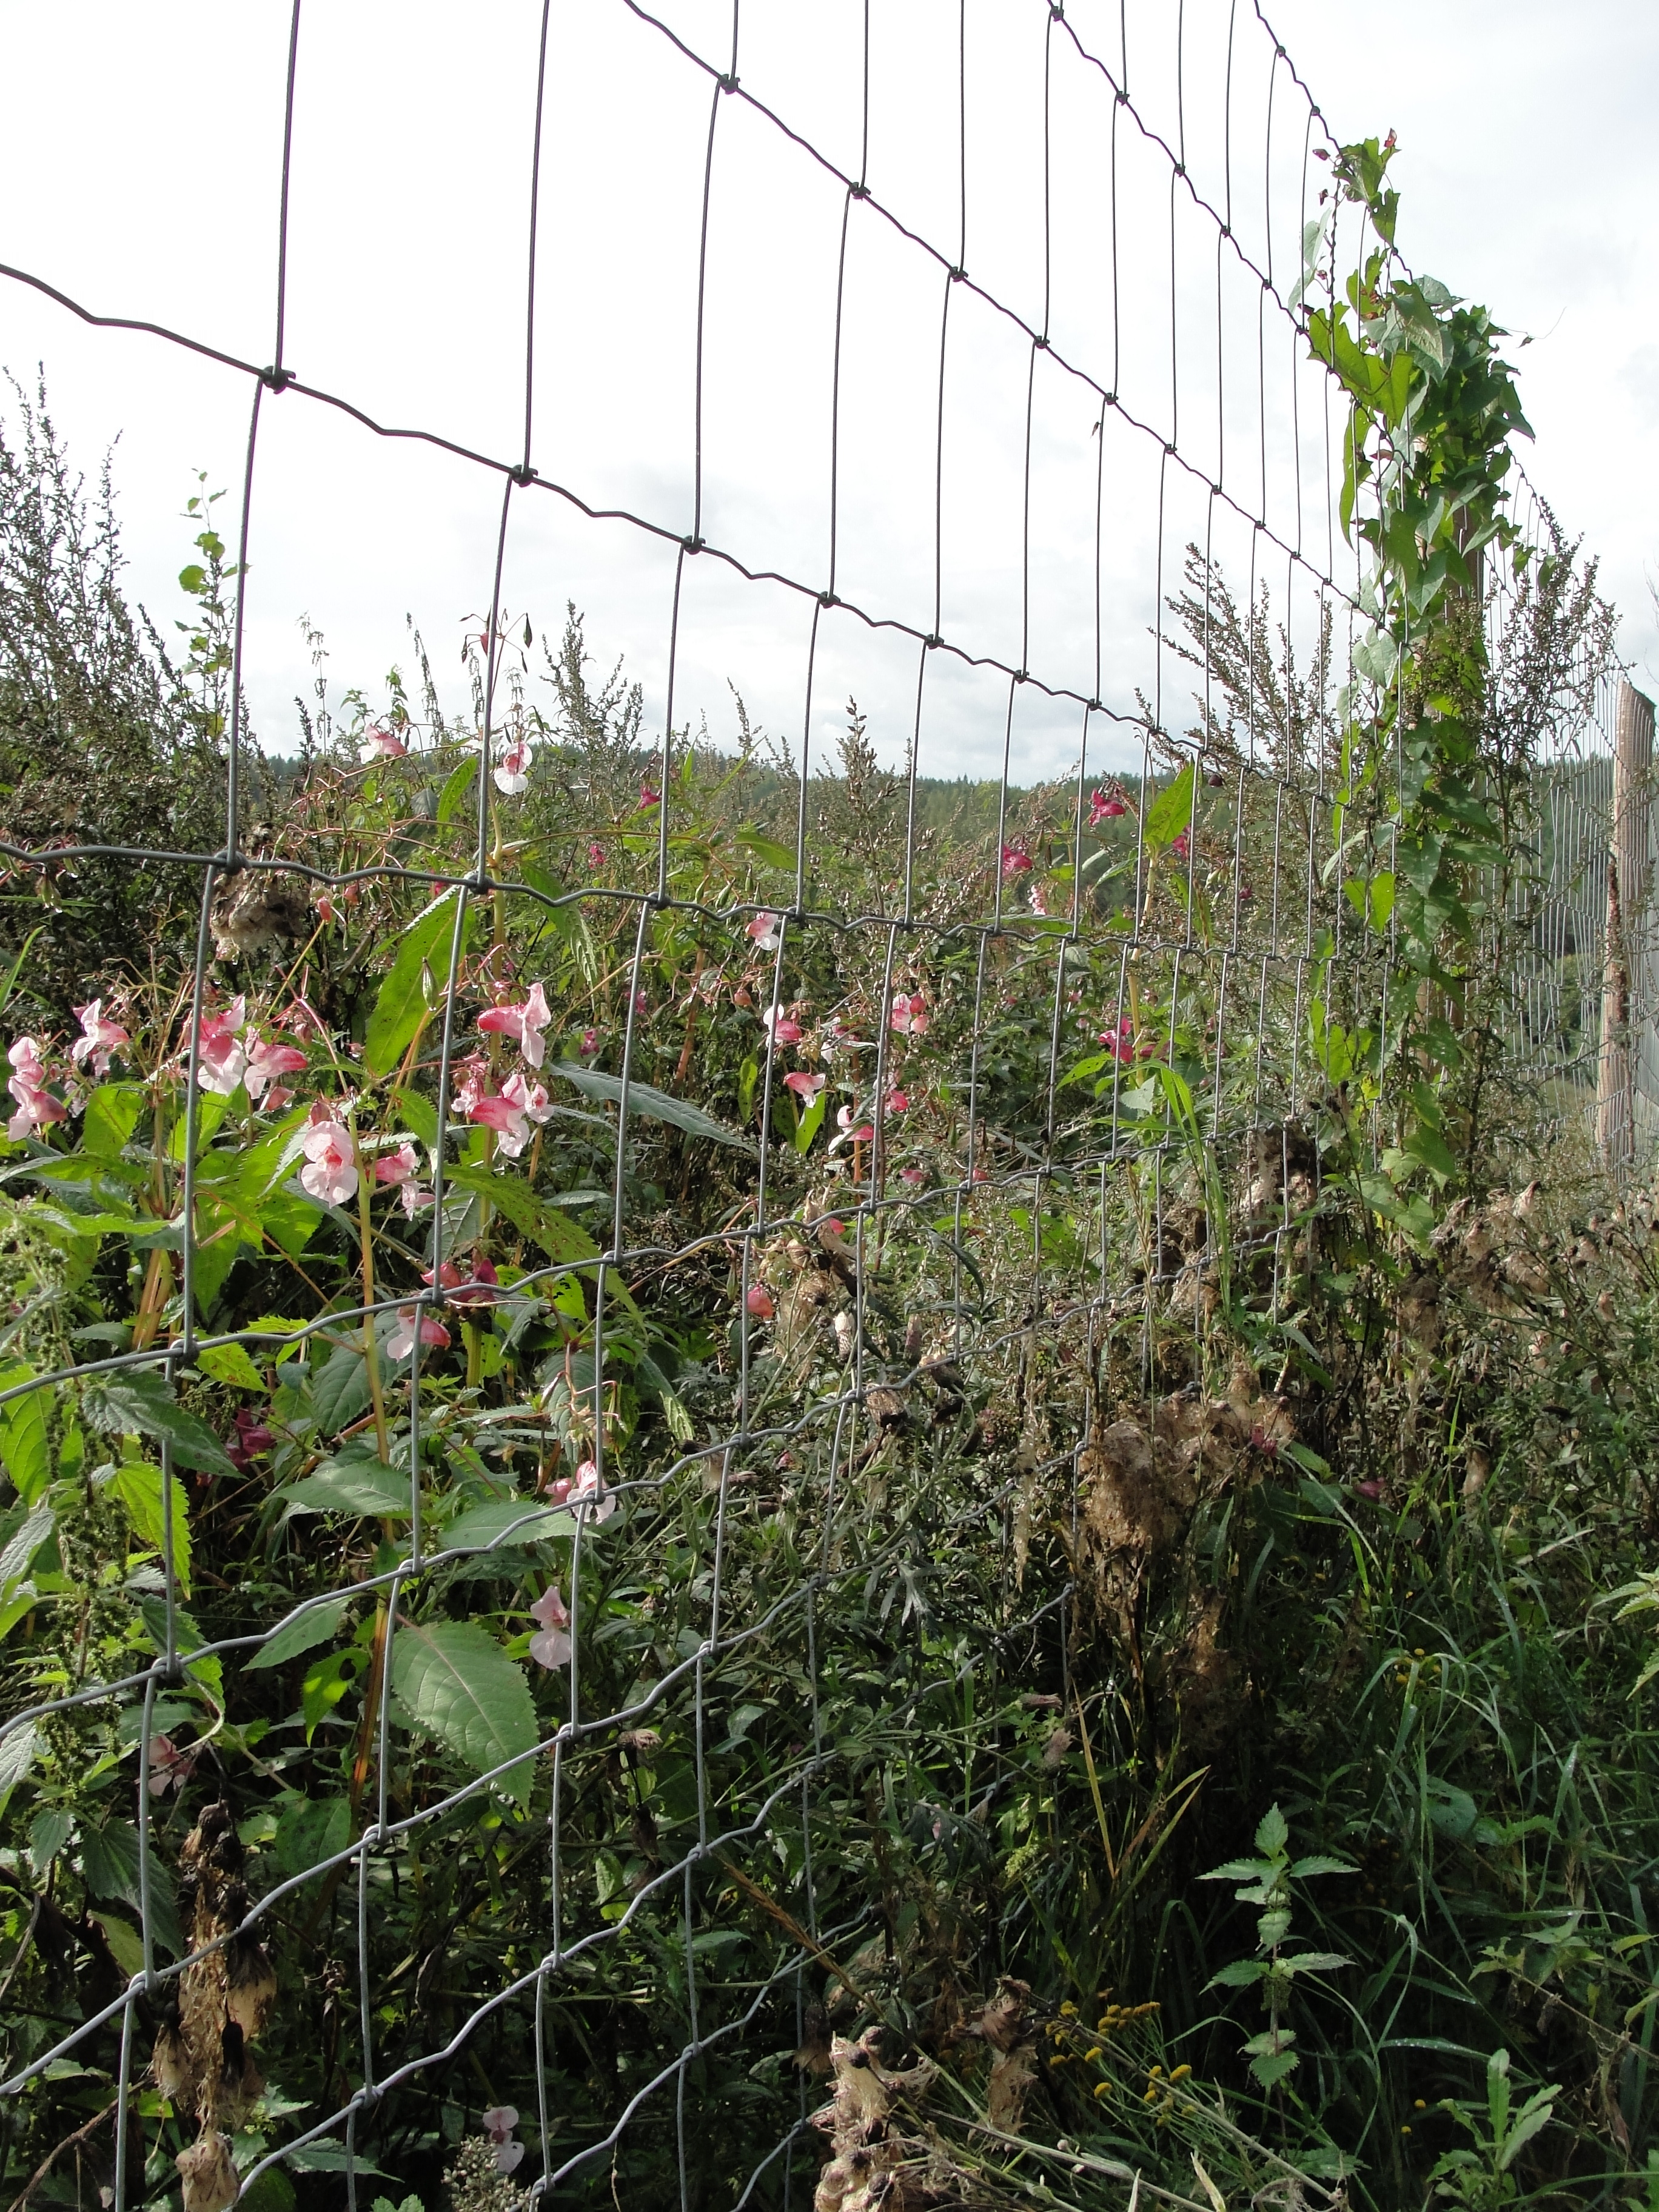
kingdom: Plantae
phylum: Tracheophyta
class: Magnoliopsida
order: Ericales
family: Balsaminaceae
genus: Impatiens
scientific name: Impatiens glandulifera
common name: Himalayan balsam
